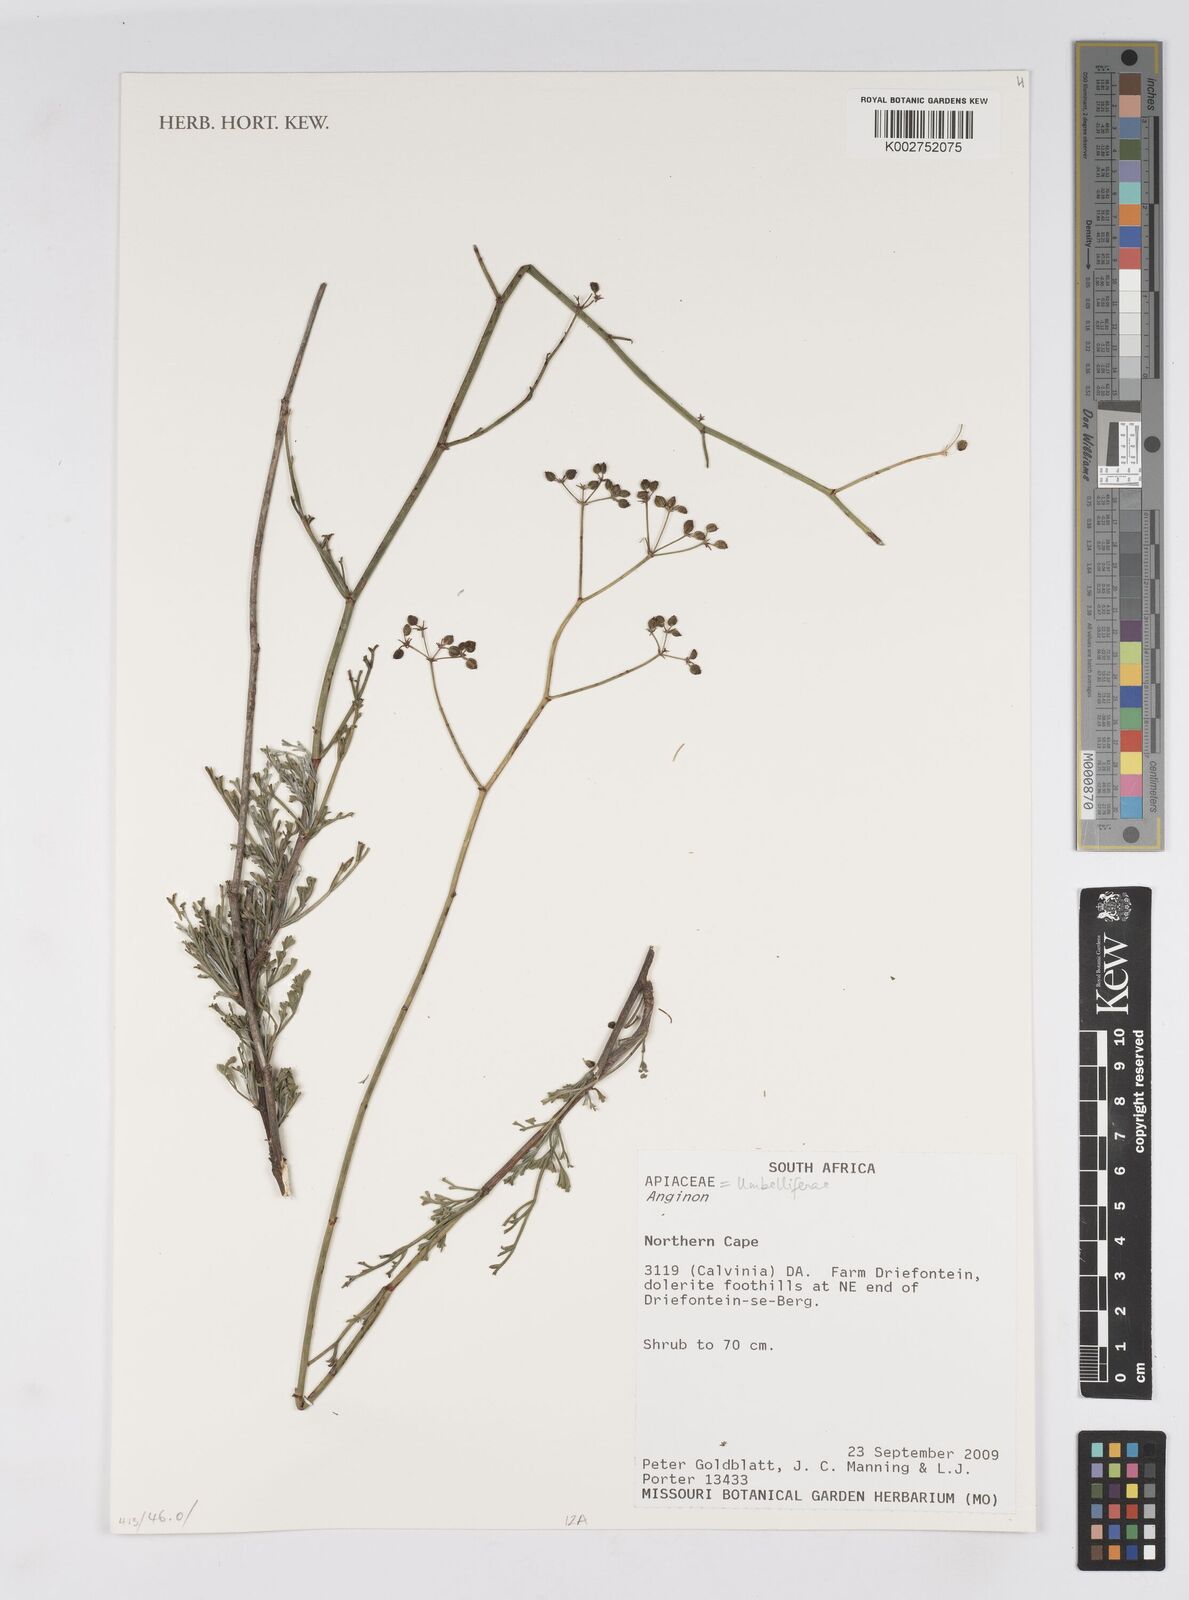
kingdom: Plantae
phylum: Tracheophyta
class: Magnoliopsida
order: Apiales
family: Apiaceae
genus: Anginon
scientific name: Anginon
